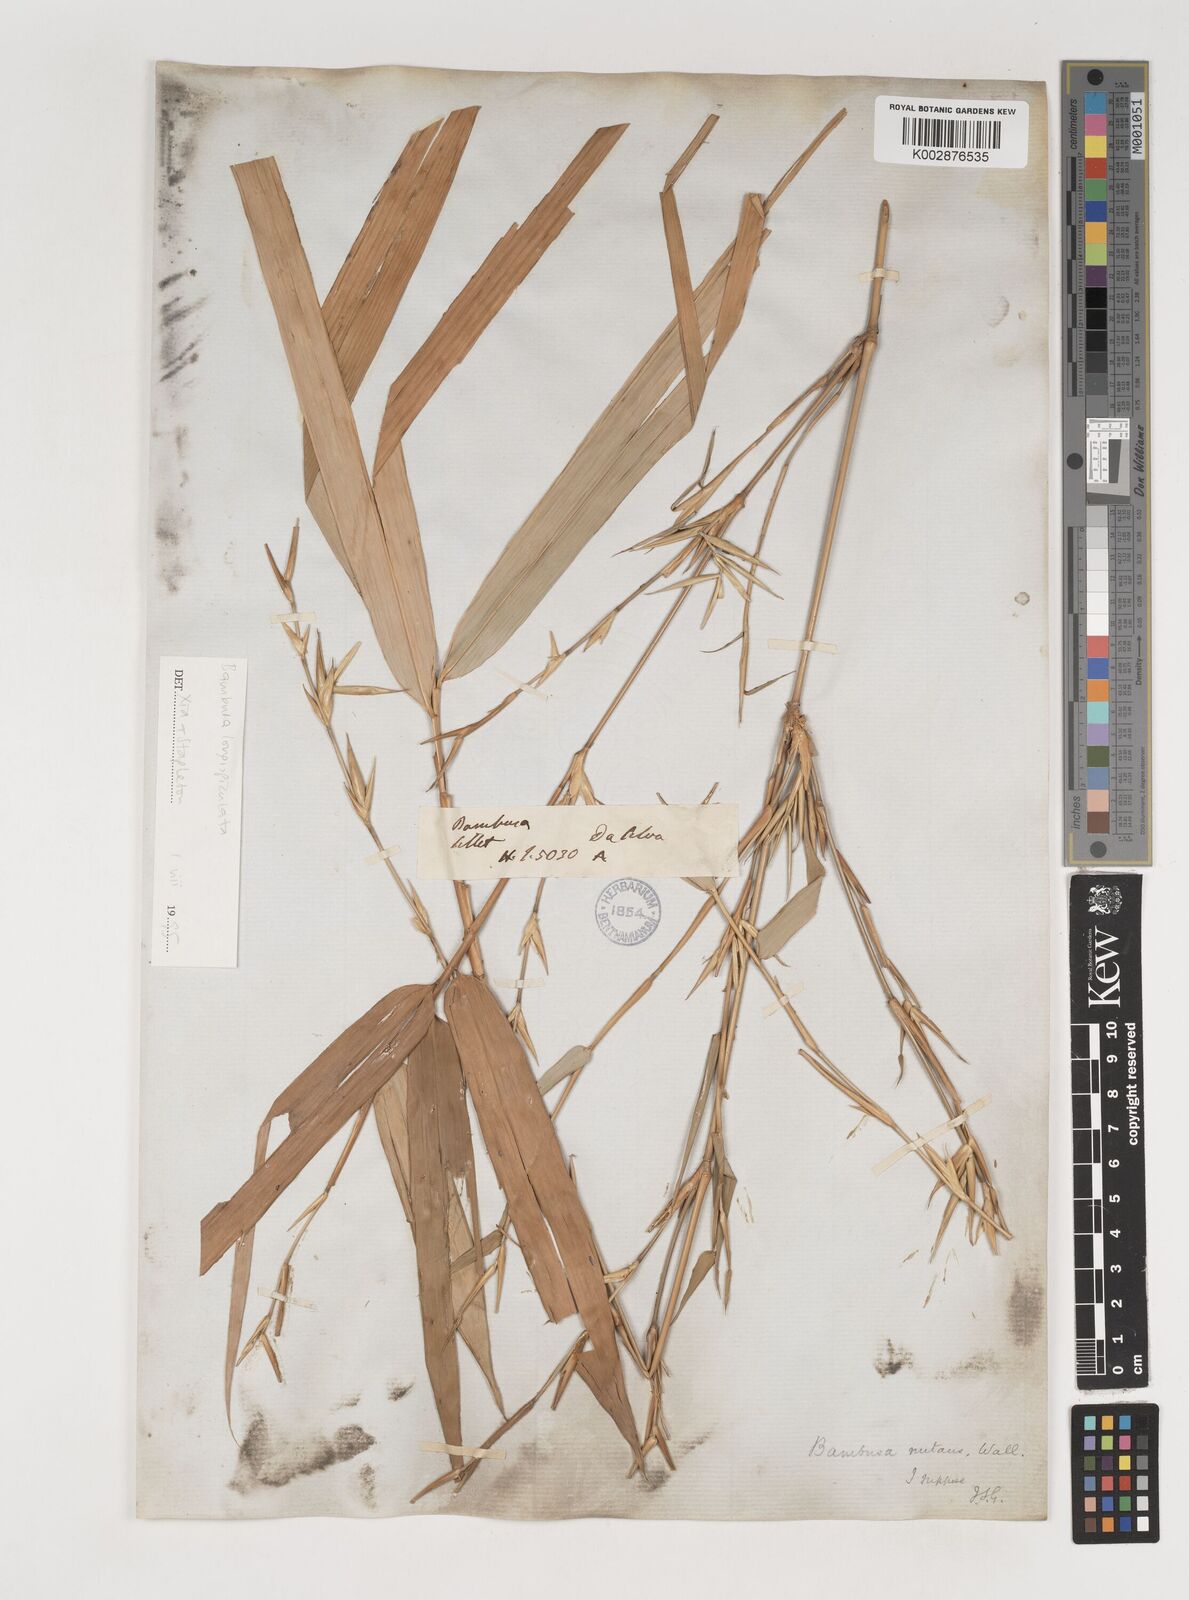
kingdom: Plantae
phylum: Tracheophyta
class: Liliopsida
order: Poales
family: Poaceae
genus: Bambusa
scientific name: Bambusa longispiculata
